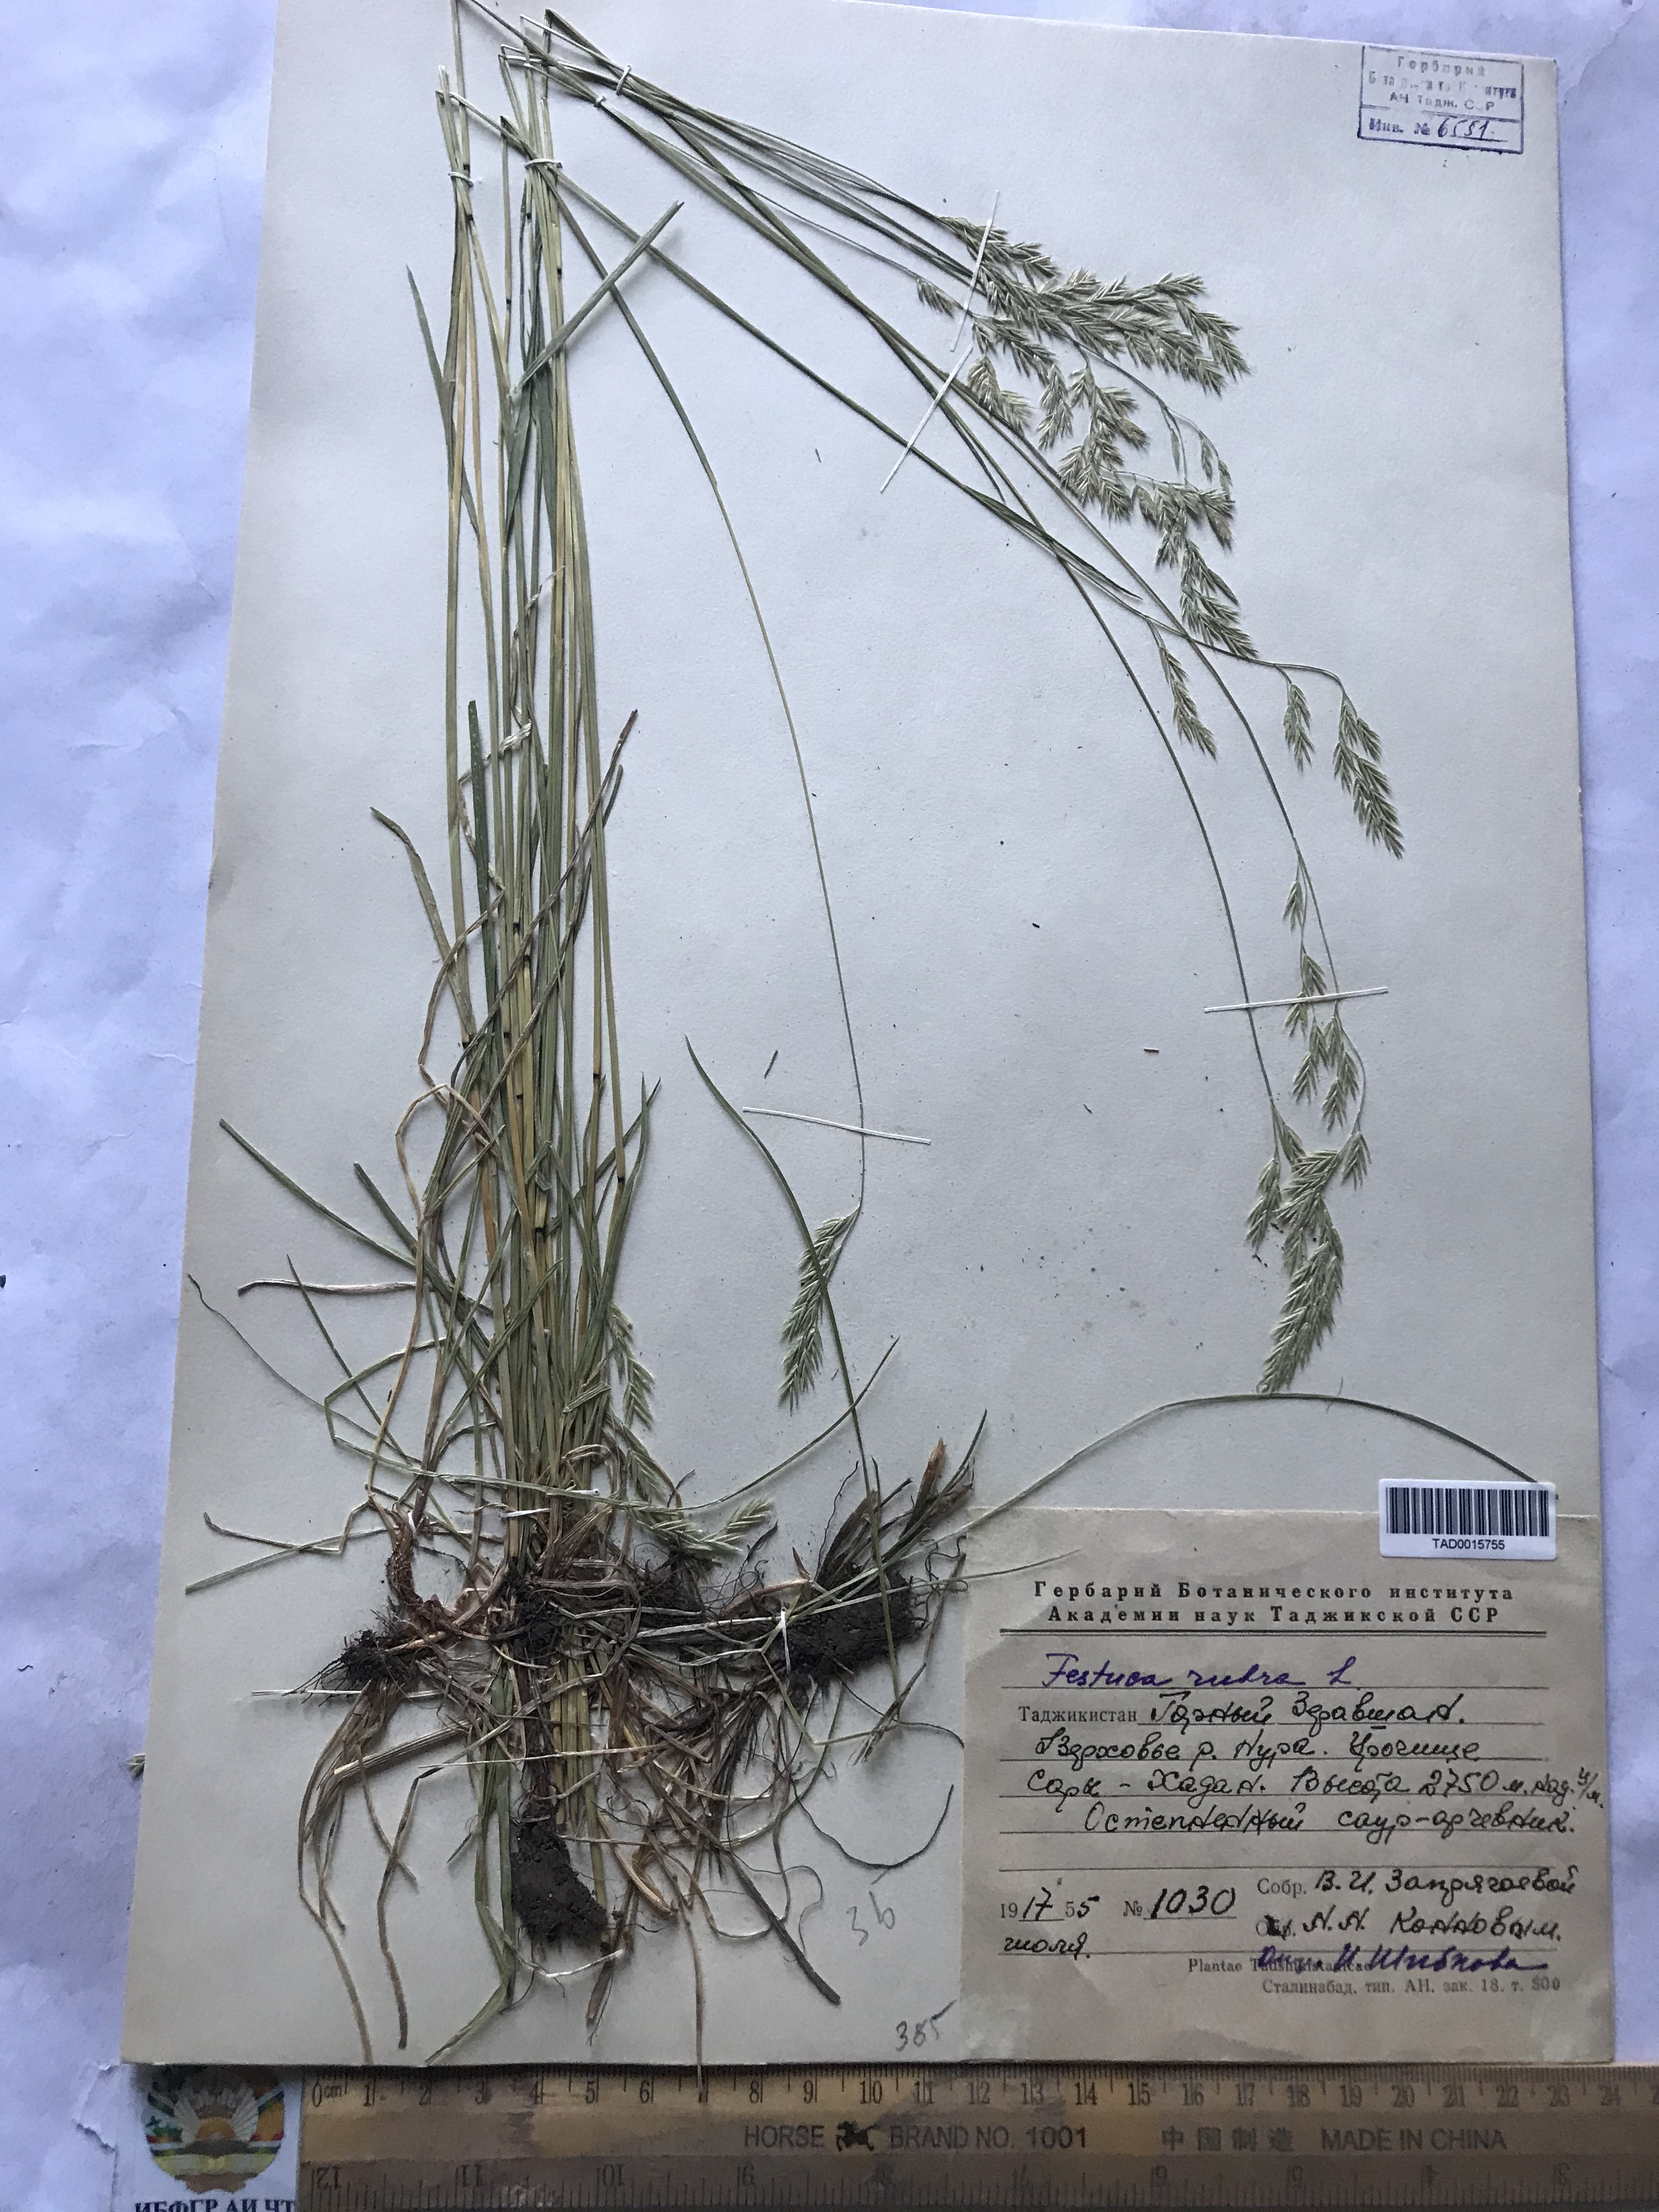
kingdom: Plantae
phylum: Tracheophyta
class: Liliopsida
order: Poales
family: Poaceae
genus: Festuca
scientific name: Festuca rubra
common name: Red fescue
